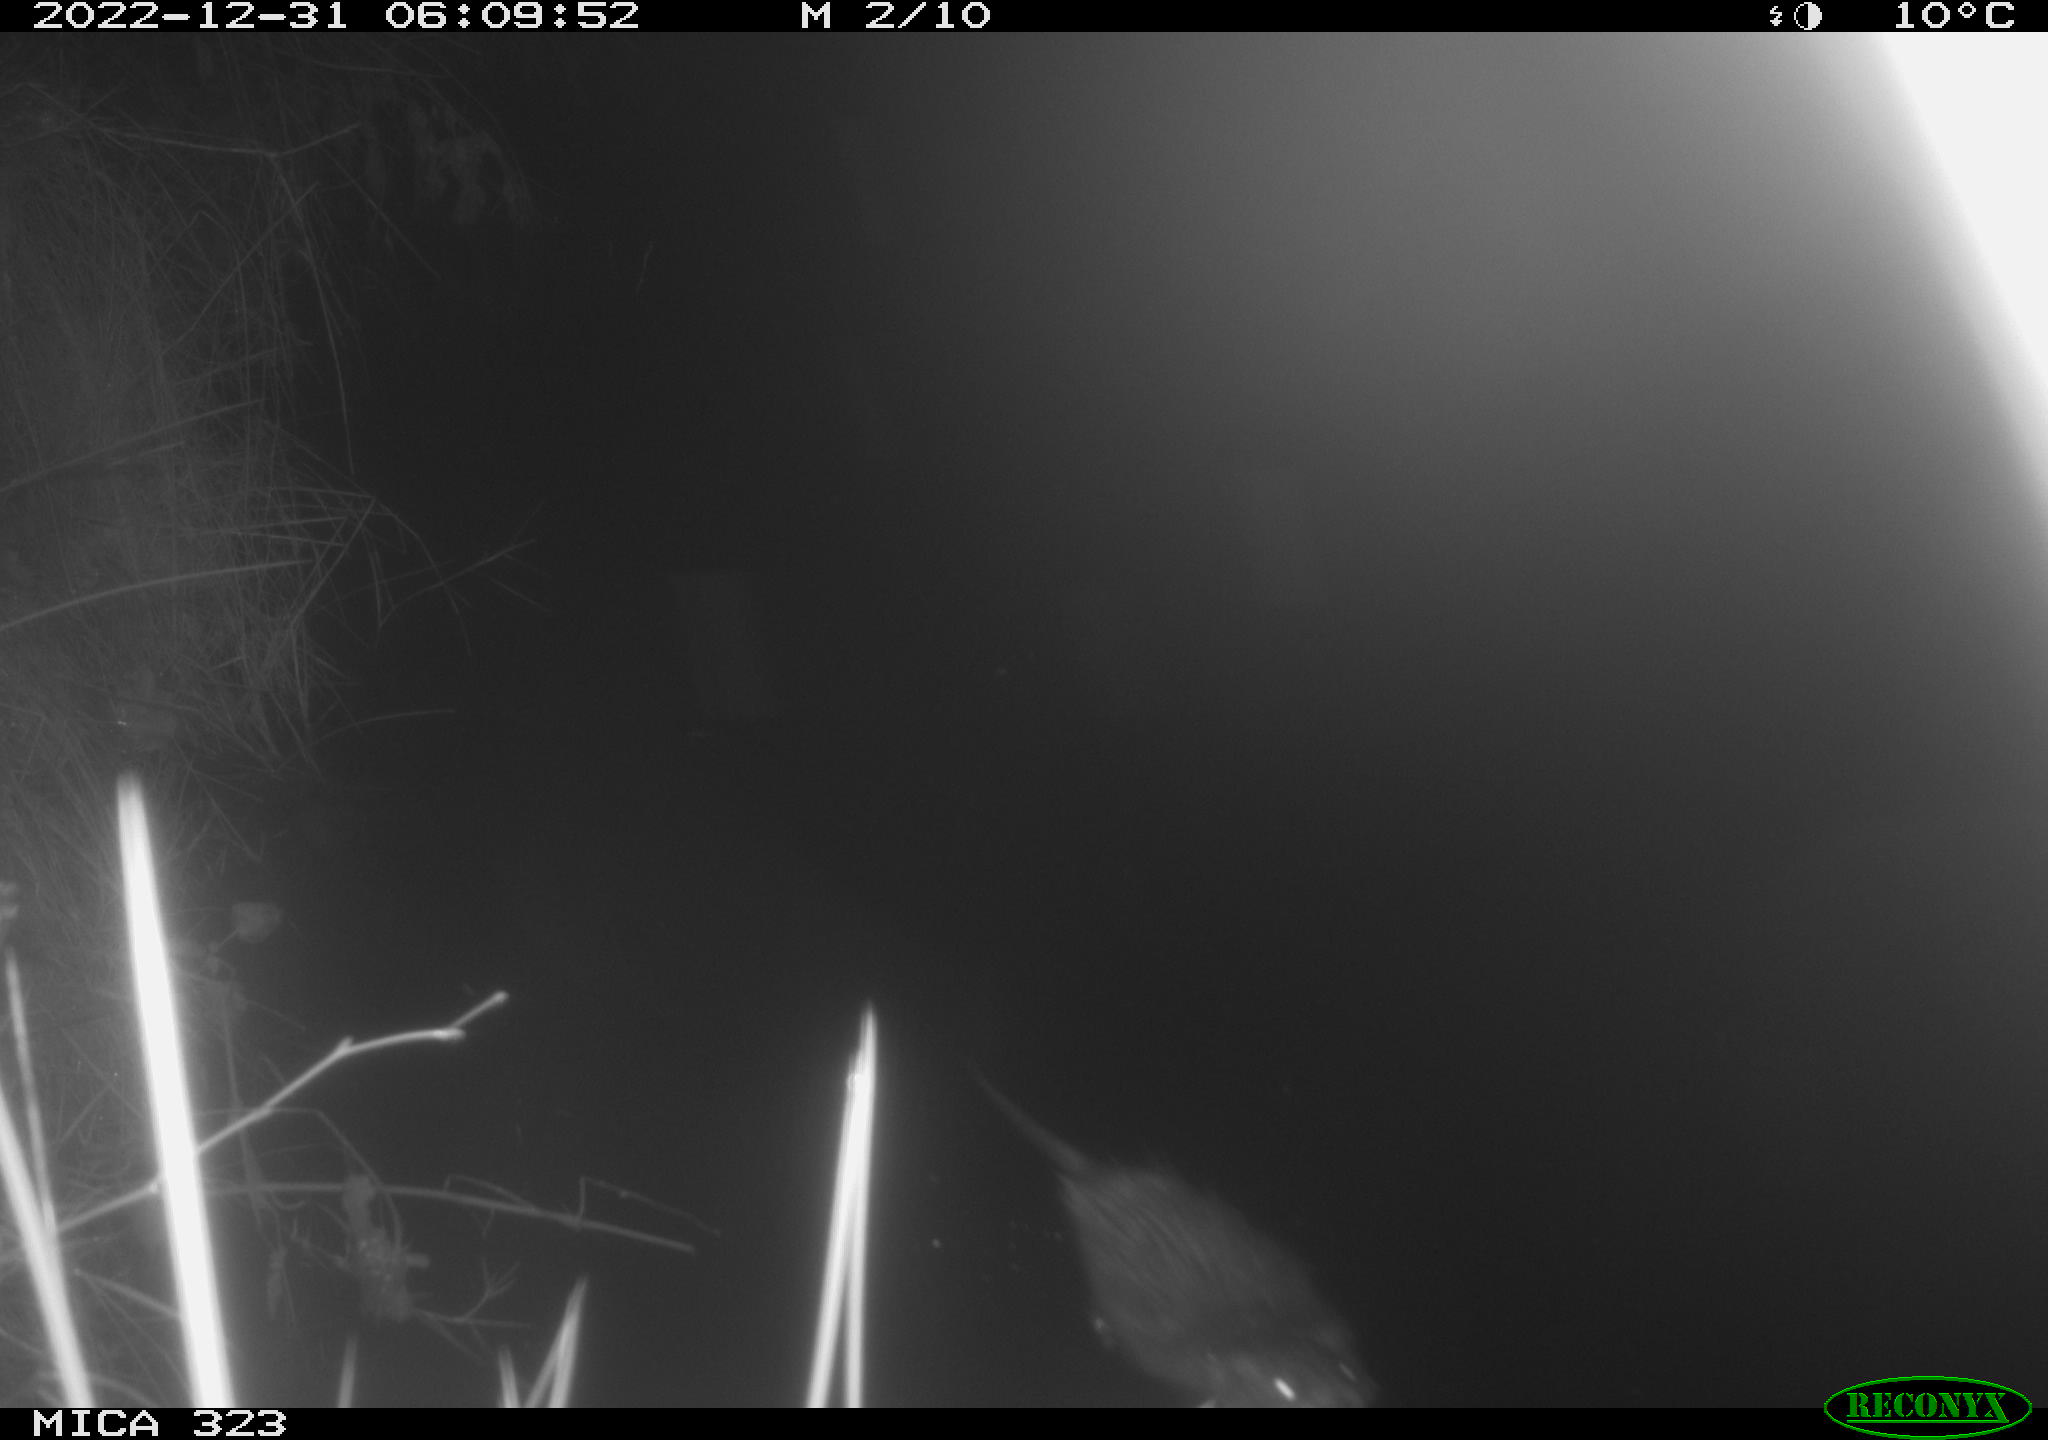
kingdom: Animalia
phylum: Chordata
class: Mammalia
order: Rodentia
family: Cricetidae
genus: Ondatra
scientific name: Ondatra zibethicus
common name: Muskrat
